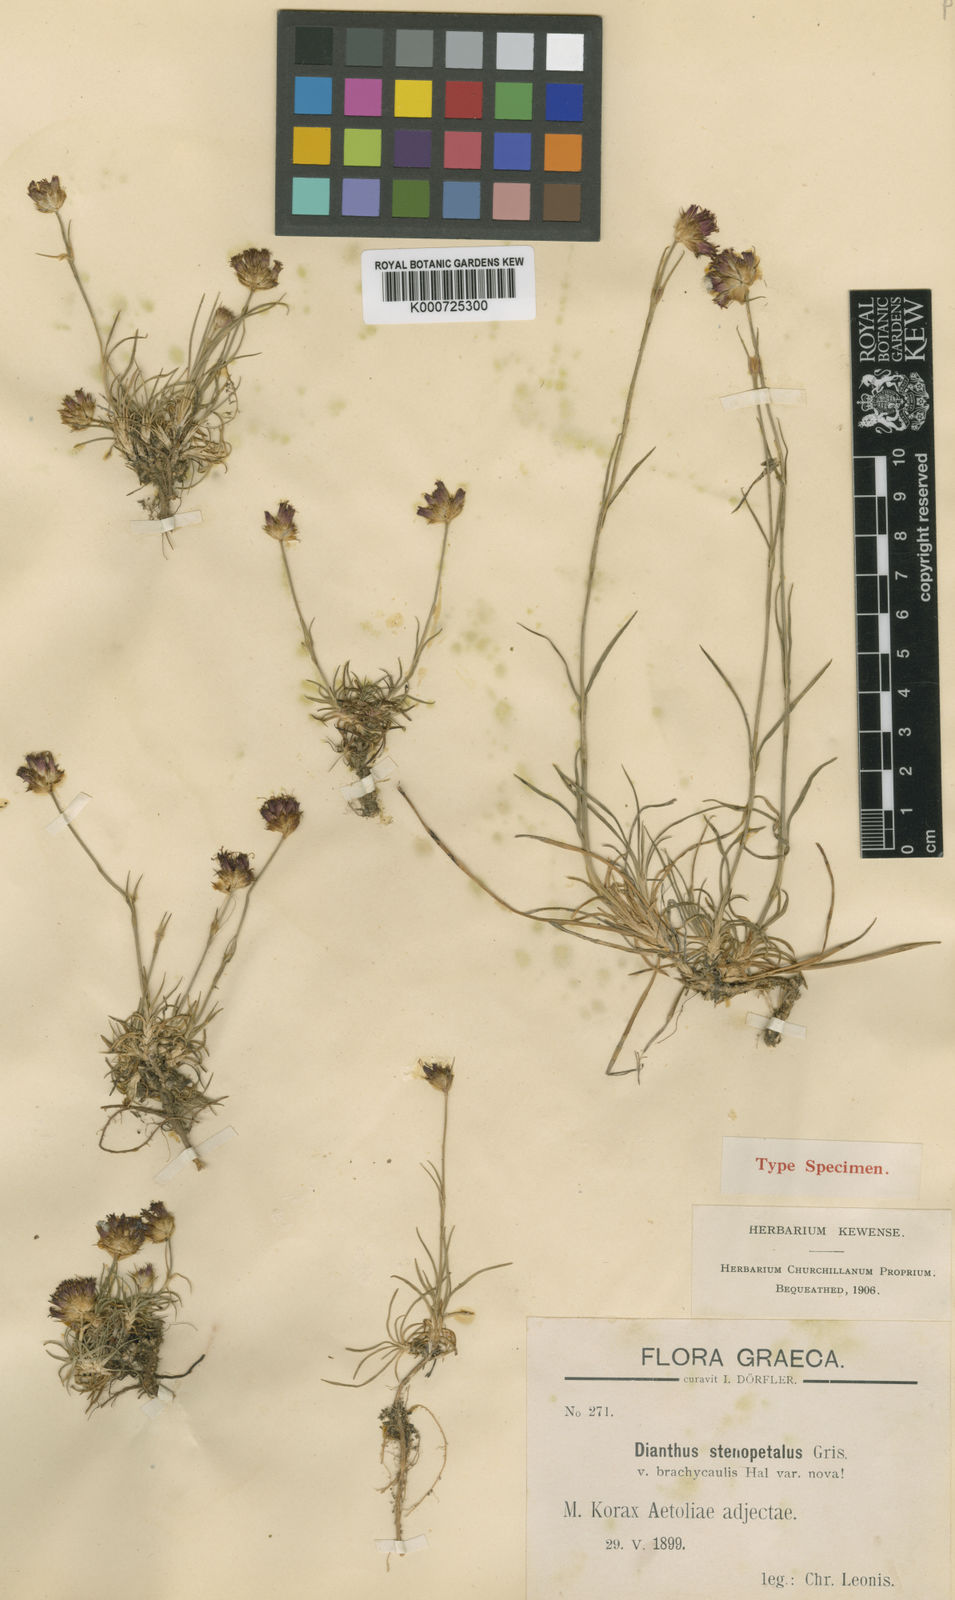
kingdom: Plantae
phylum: Tracheophyta
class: Magnoliopsida
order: Caryophyllales
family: Caryophyllaceae
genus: Dianthus
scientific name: Dianthus stenopetalus
